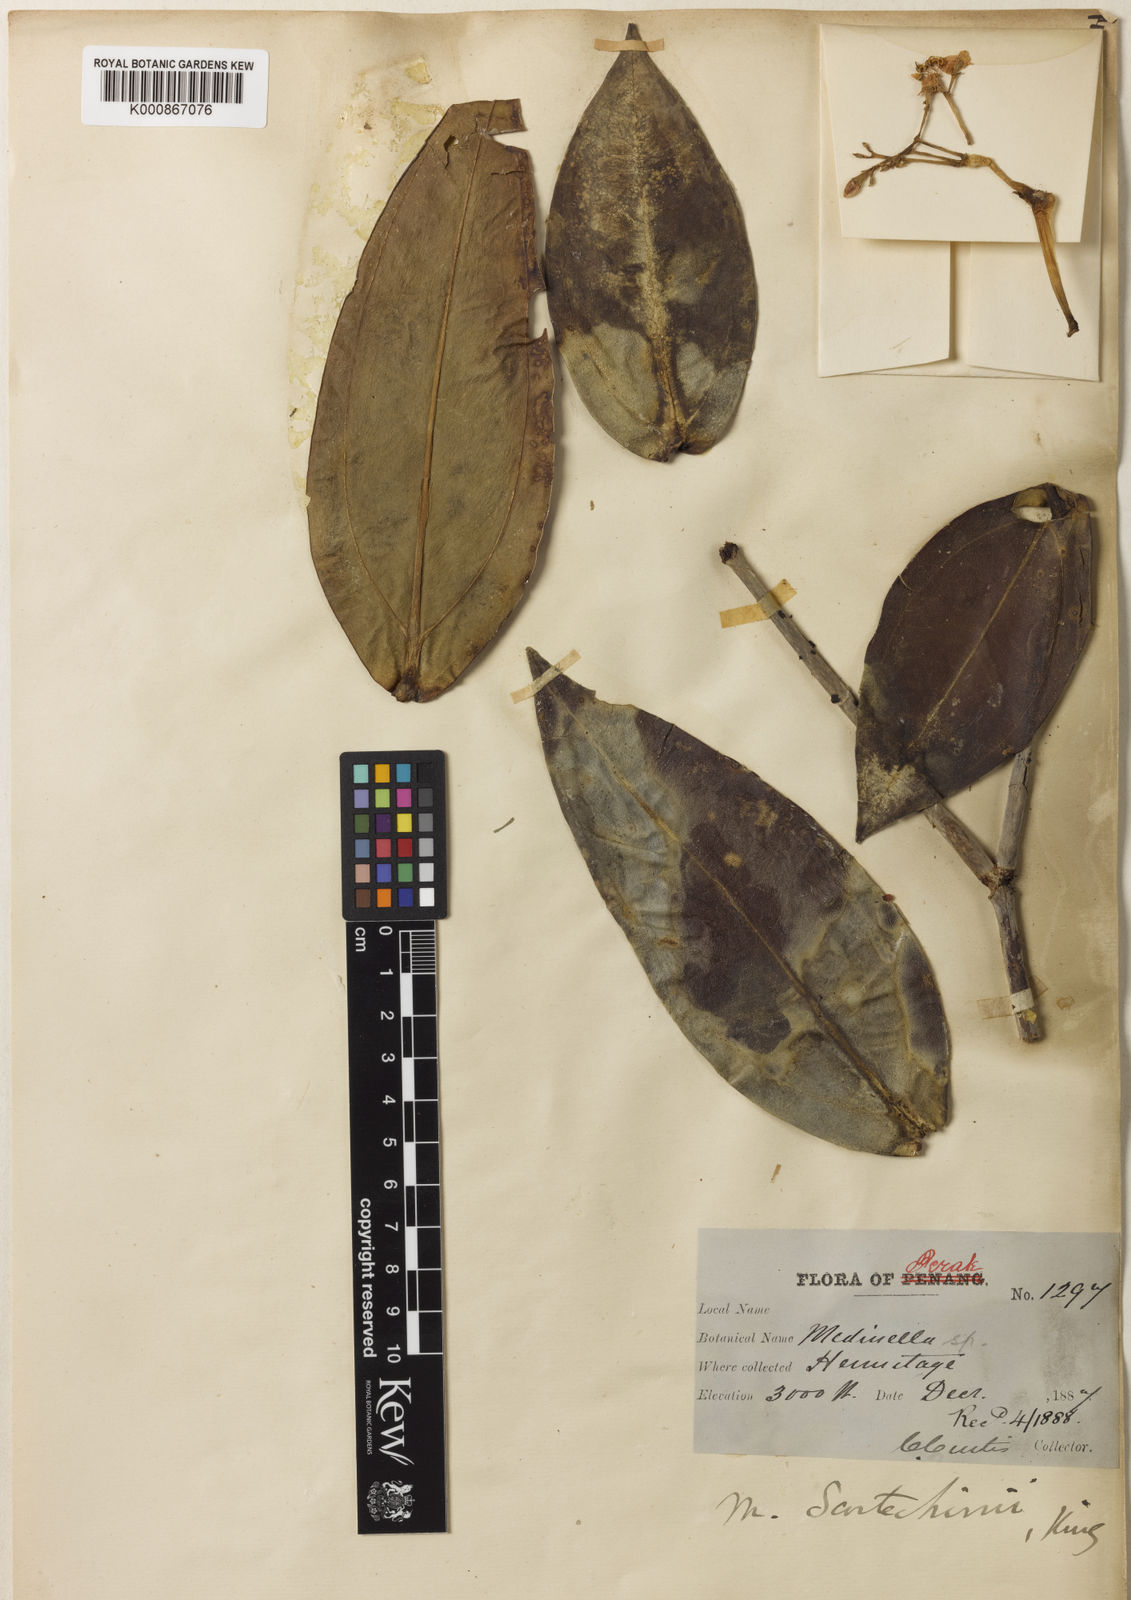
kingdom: Plantae
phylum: Tracheophyta
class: Magnoliopsida
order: Myrtales
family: Melastomataceae
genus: Medinilla
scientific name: Medinilla scortechinii
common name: Coral medinilla
